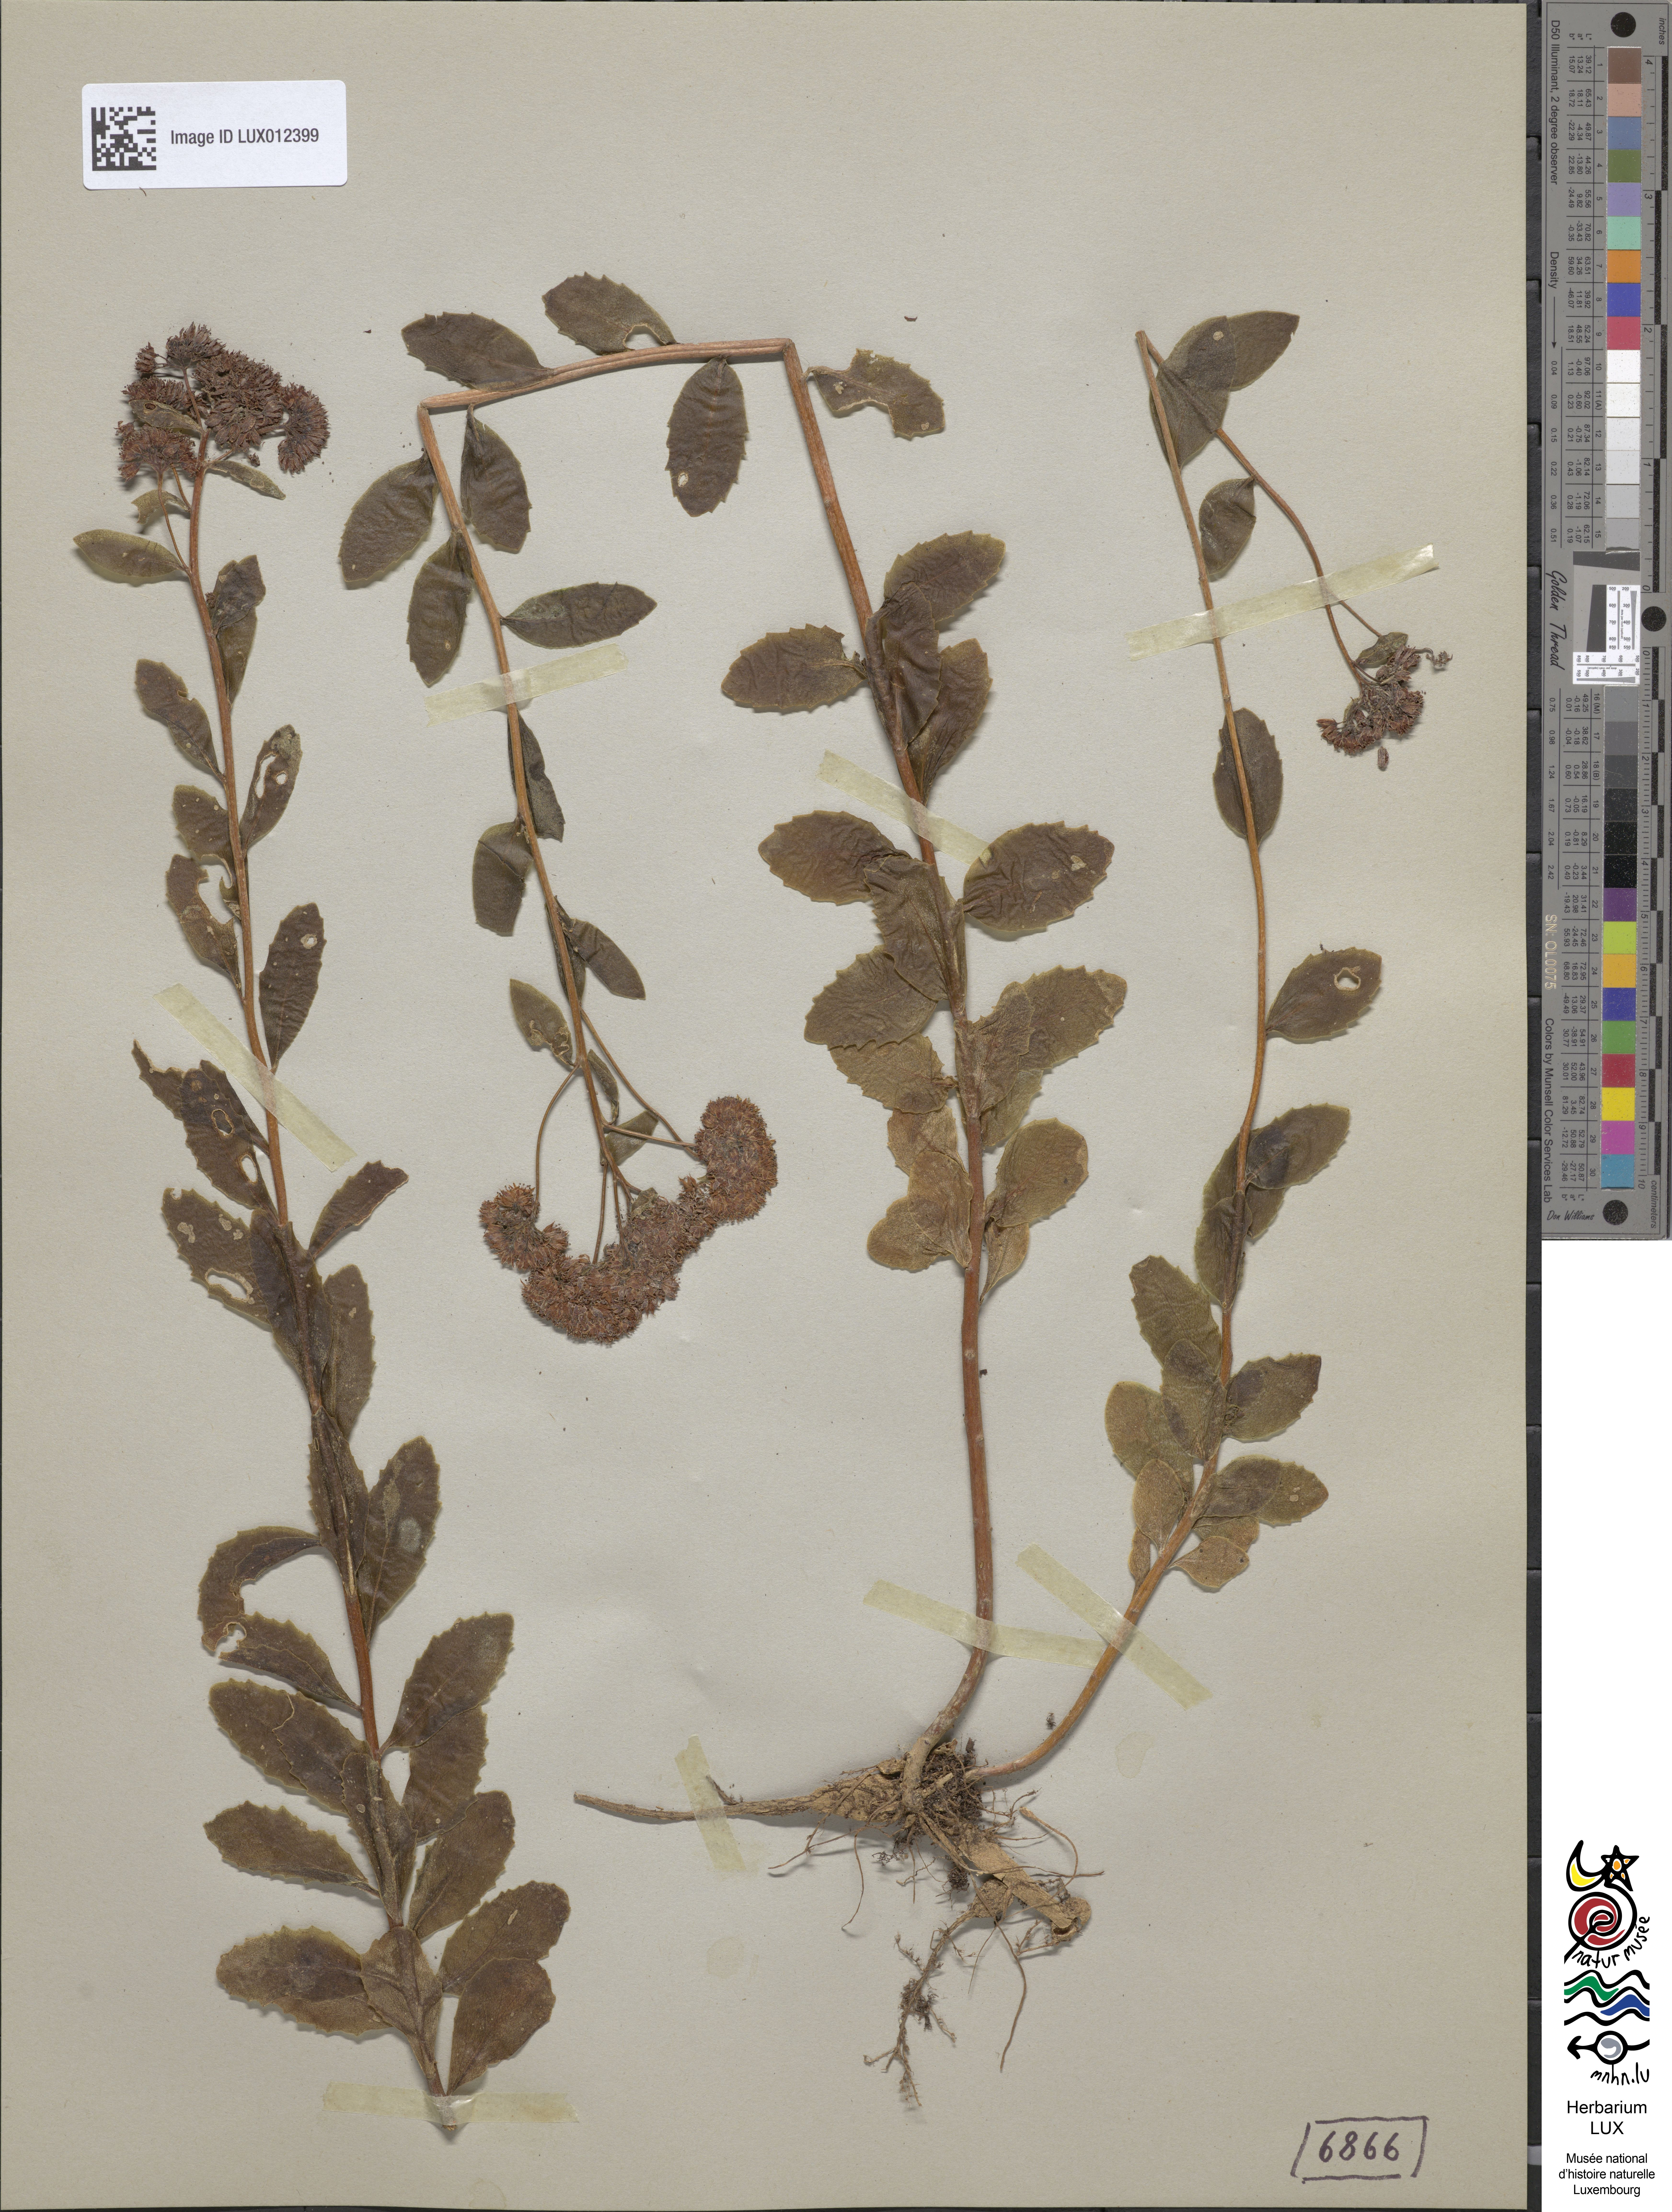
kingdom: Plantae
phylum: Tracheophyta
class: Magnoliopsida
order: Saxifragales
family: Crassulaceae
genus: Hylotelephium
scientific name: Hylotelephium telephium
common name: Live-forever
